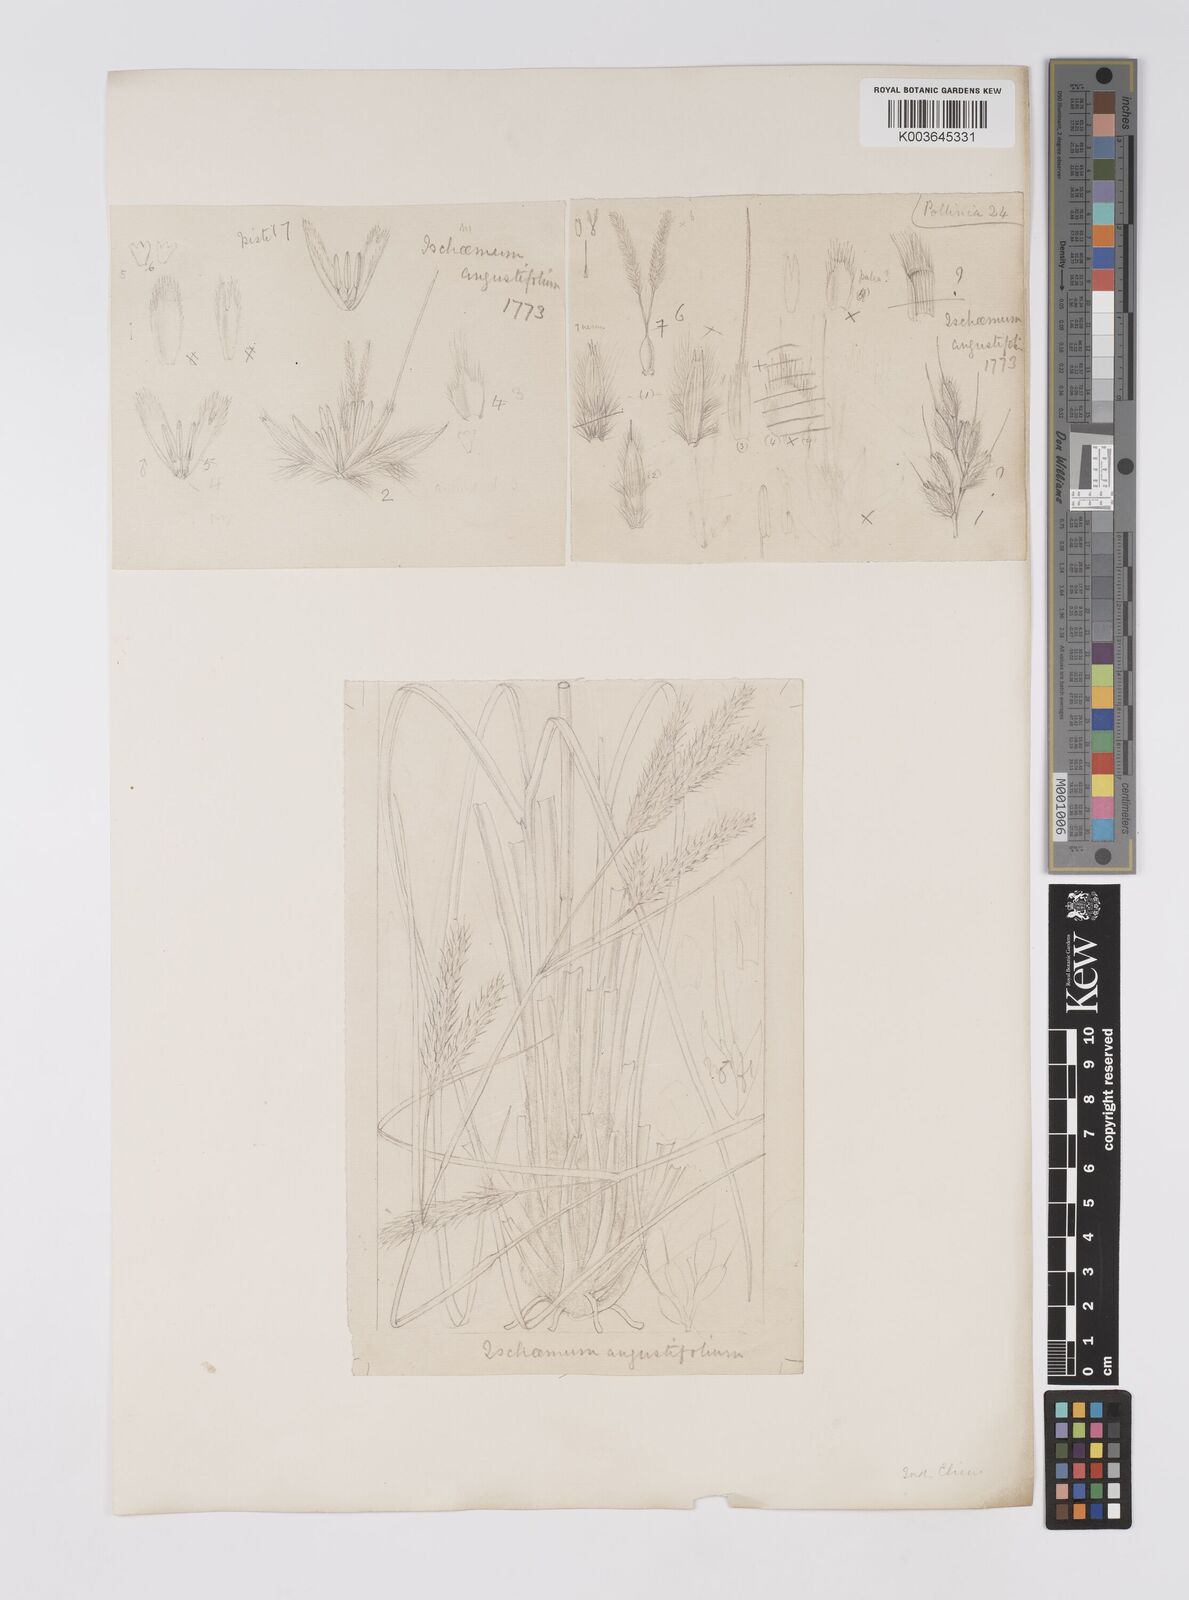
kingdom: Plantae
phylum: Tracheophyta
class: Liliopsida
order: Poales
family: Poaceae
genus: Eulaliopsis
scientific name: Eulaliopsis binata
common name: Baib grass
